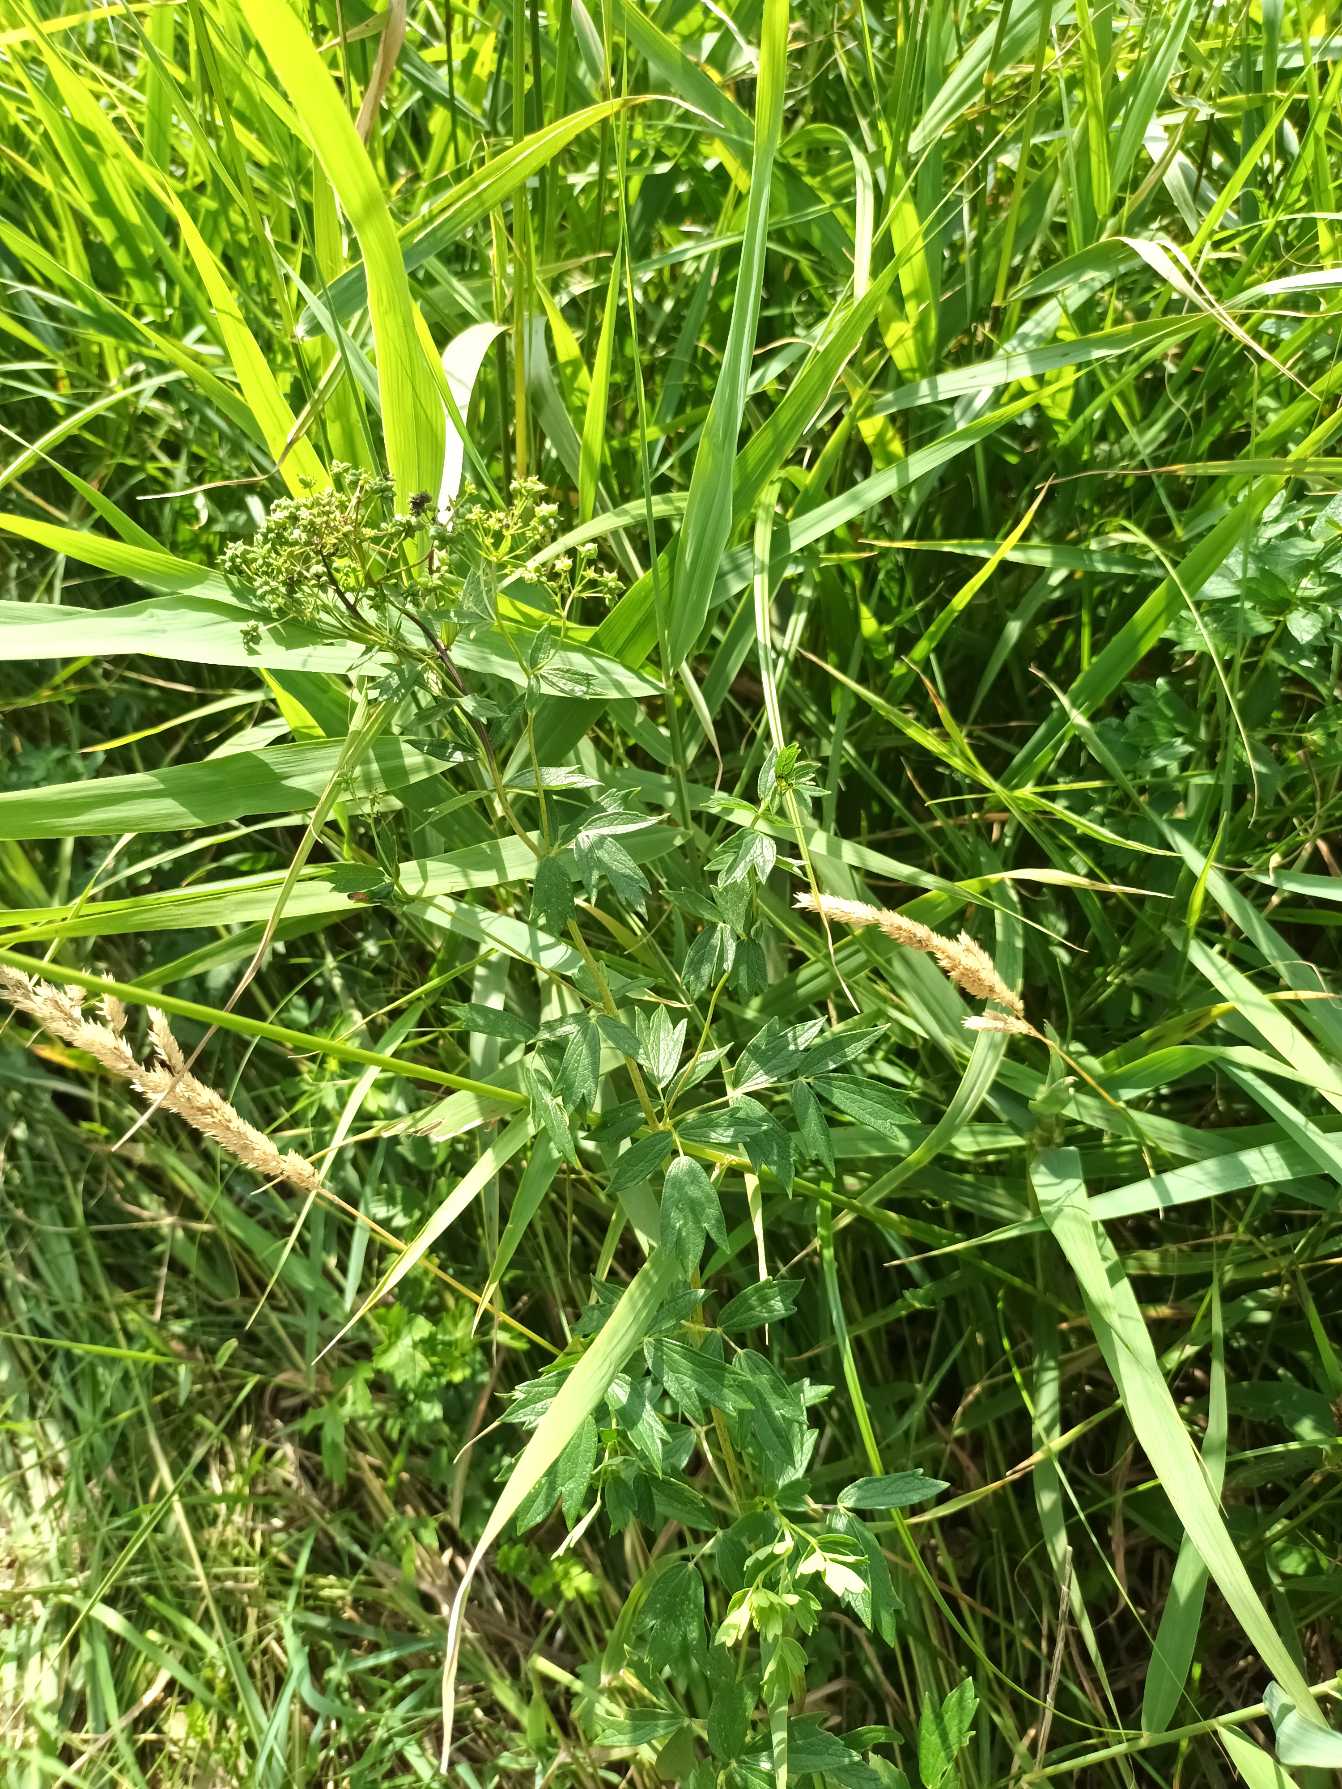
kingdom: Plantae
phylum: Tracheophyta
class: Magnoliopsida
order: Ranunculales
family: Ranunculaceae
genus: Thalictrum
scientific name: Thalictrum flavum
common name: Gul frøstjerne
